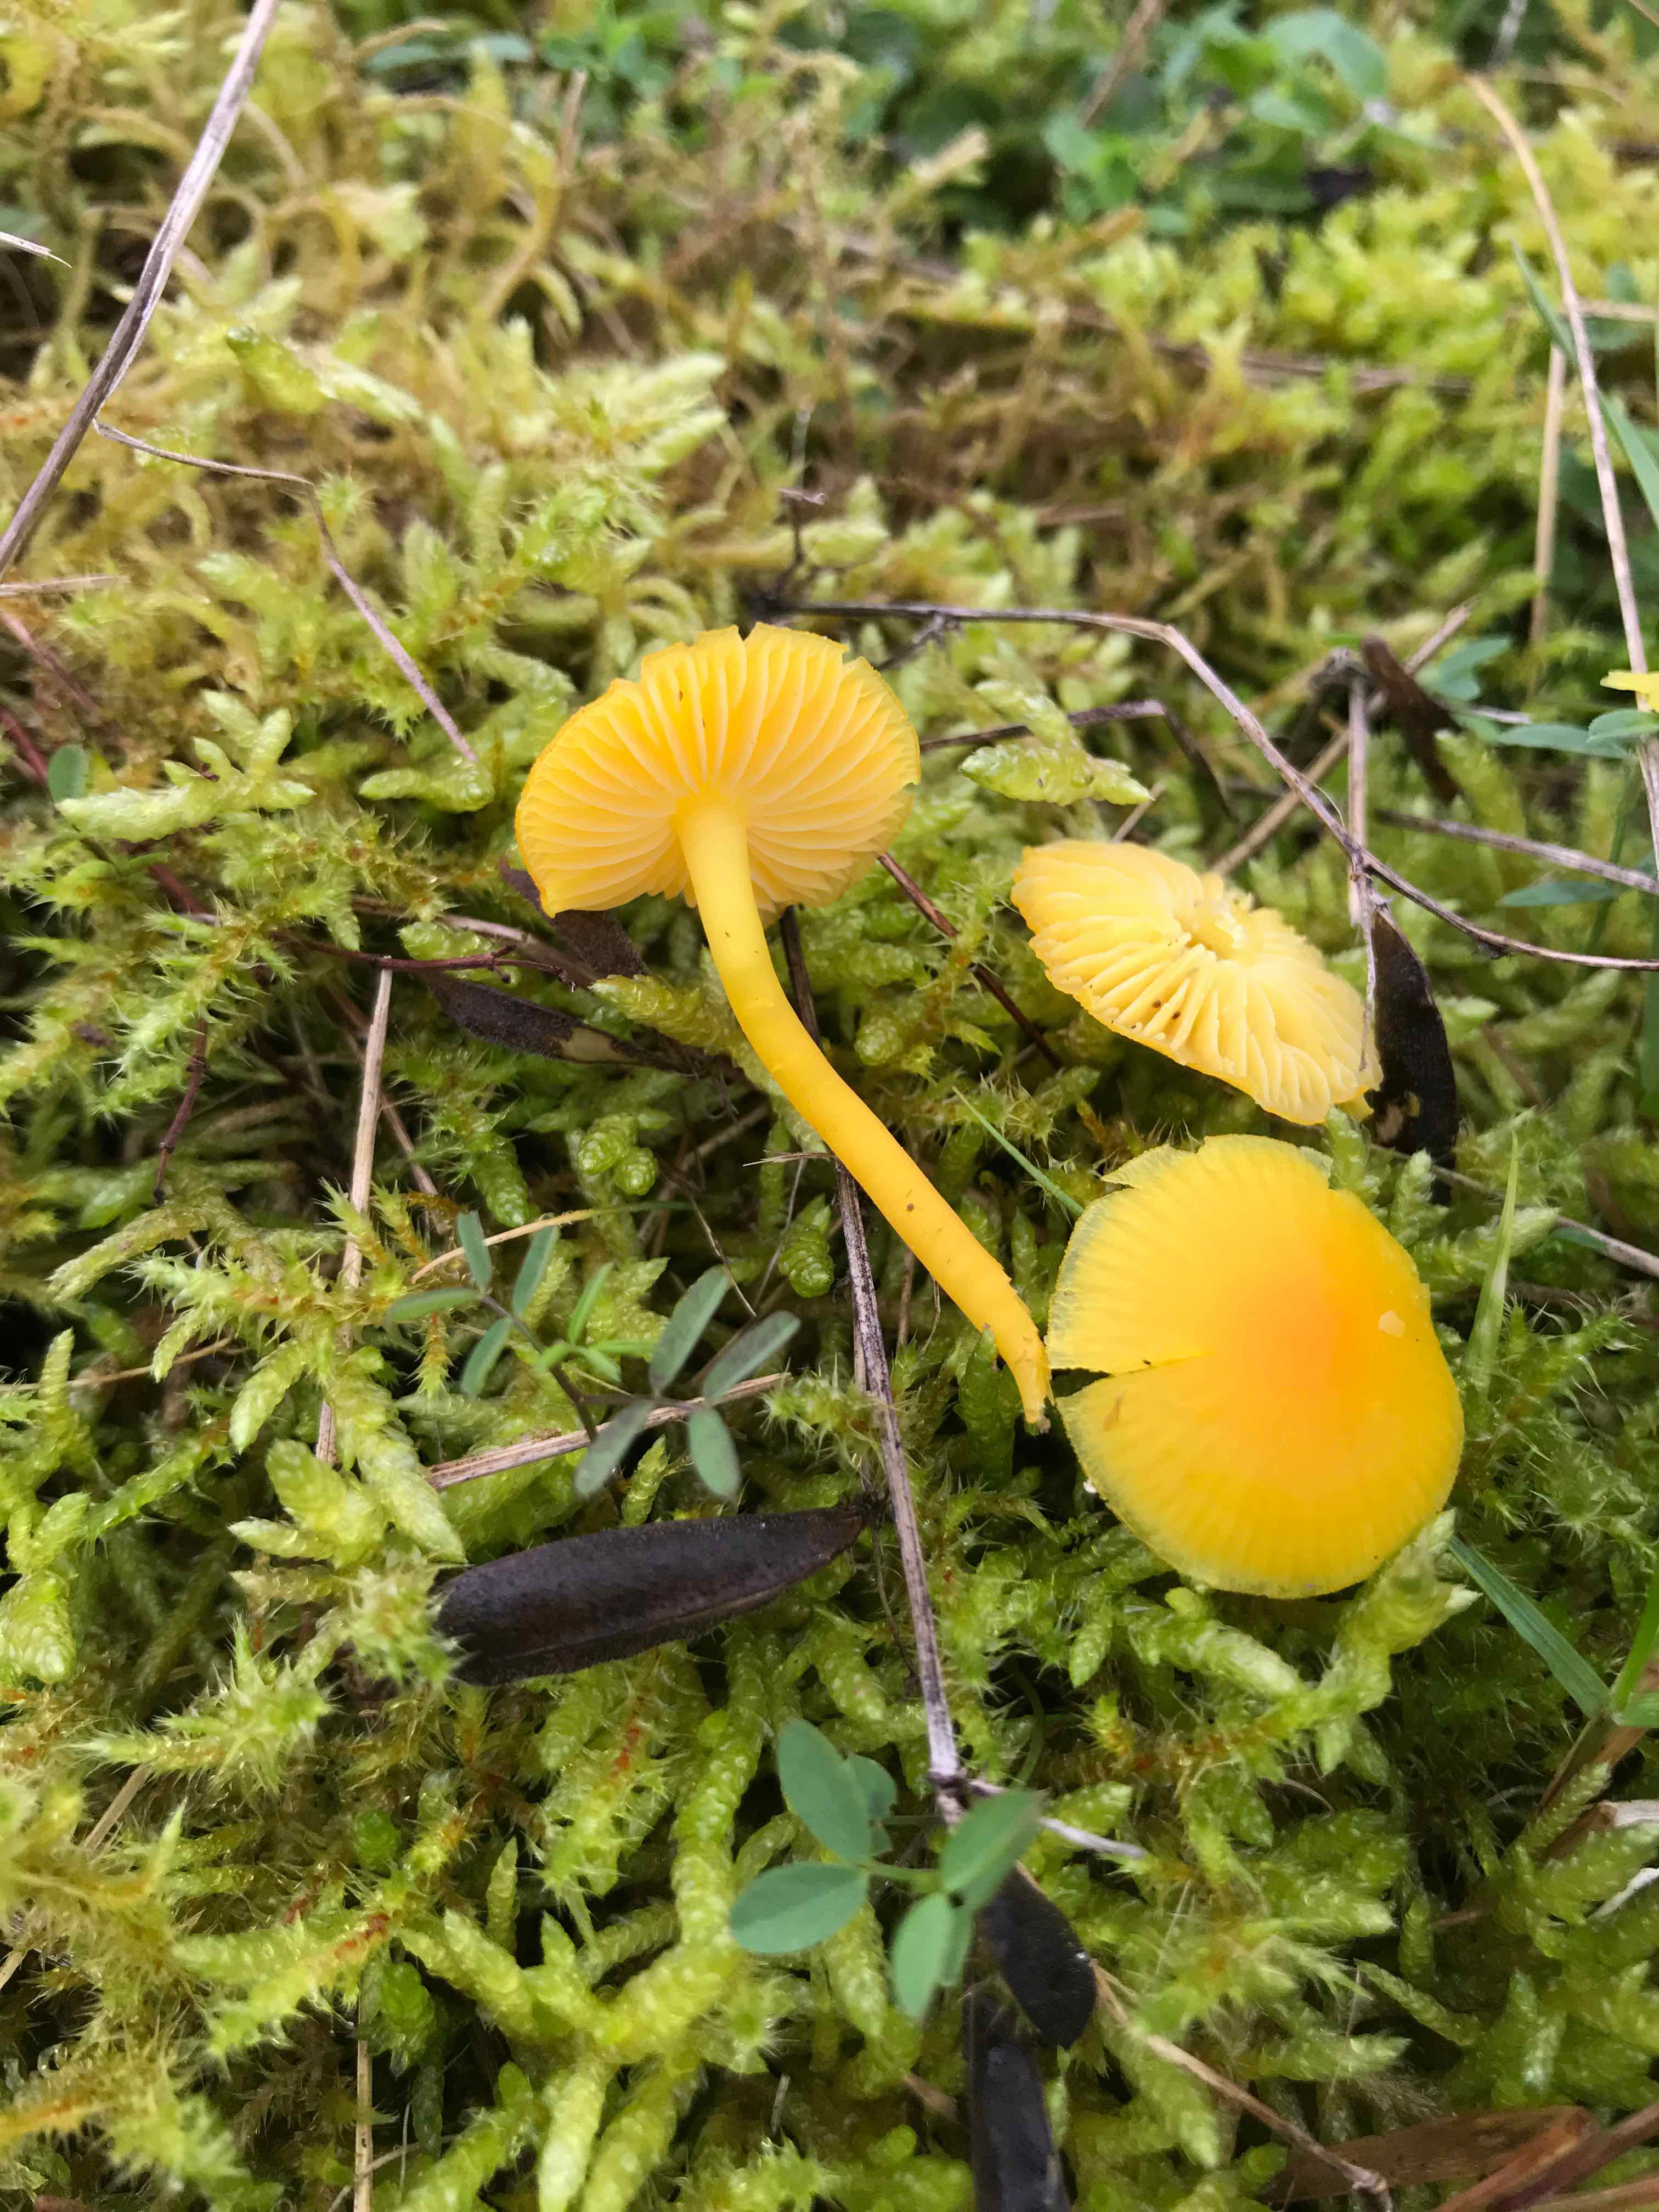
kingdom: Fungi
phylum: Basidiomycota
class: Agaricomycetes
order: Agaricales
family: Hygrophoraceae
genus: Hygrocybe
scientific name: Hygrocybe ceracea
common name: voksgul vokshat
